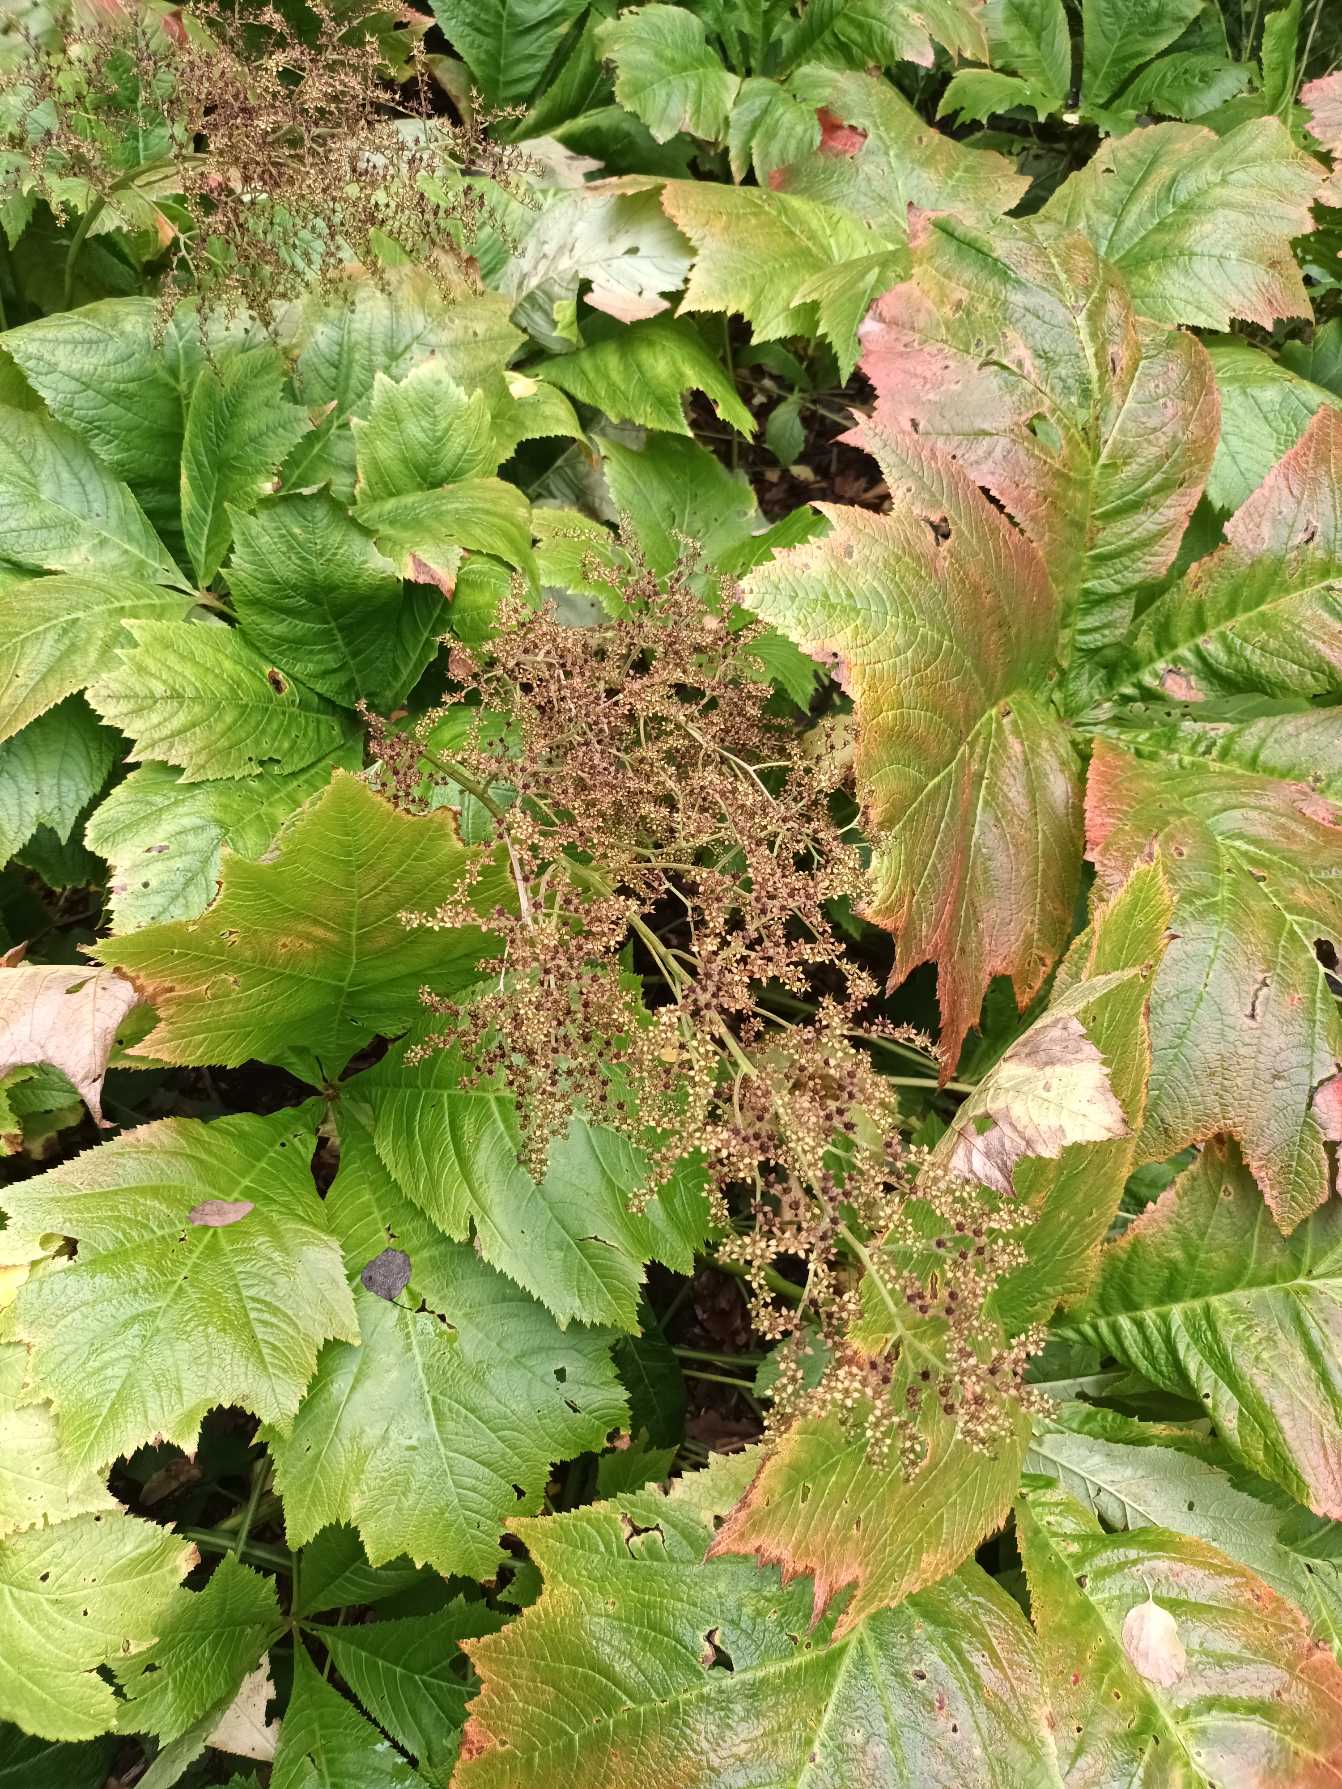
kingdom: Plantae
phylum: Tracheophyta
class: Magnoliopsida
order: Saxifragales
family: Saxifragaceae
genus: Rodgersia
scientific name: Rodgersia podophylla
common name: Stilket bronzeblad
